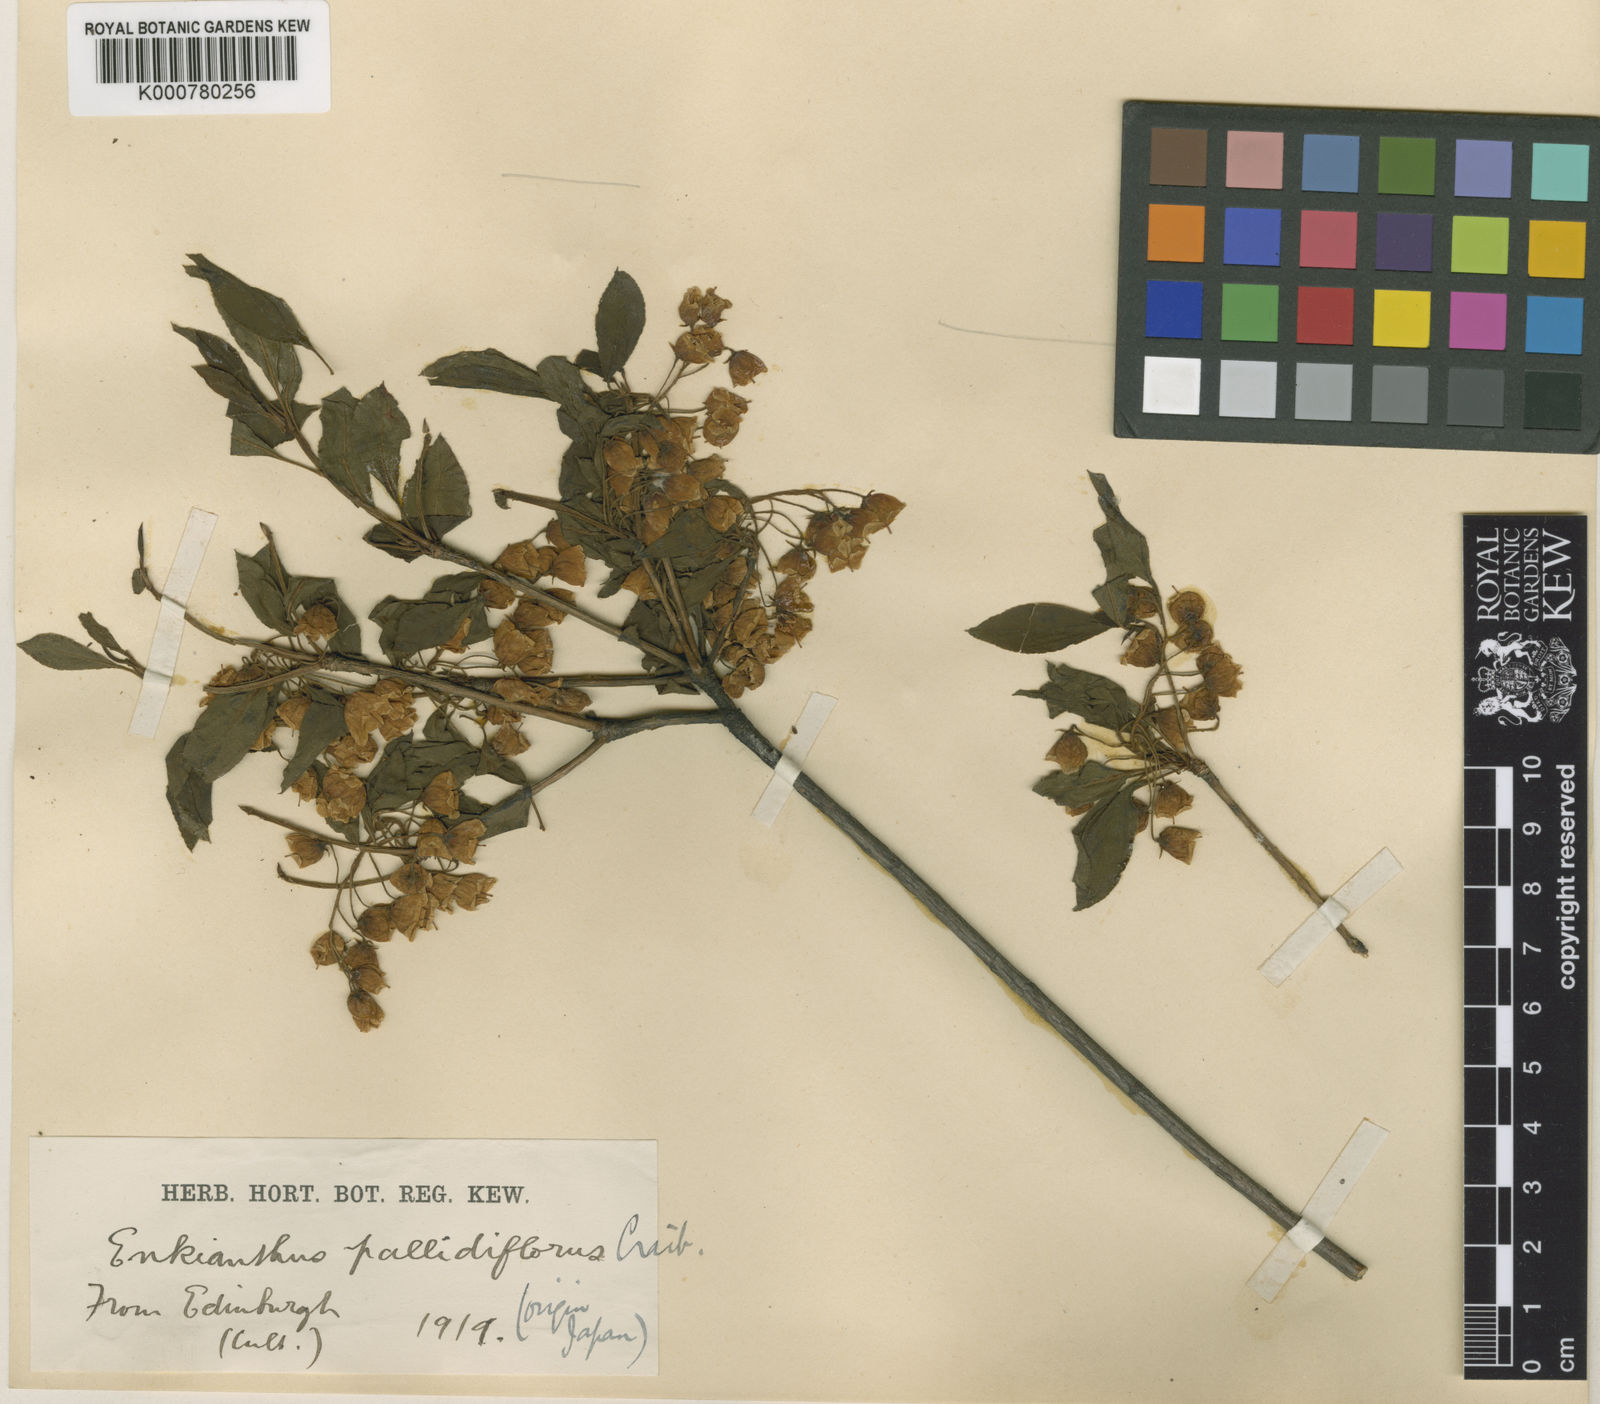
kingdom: Plantae
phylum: Tracheophyta
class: Magnoliopsida
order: Ericales
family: Ericaceae
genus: Enkianthus
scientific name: Enkianthus campanulatus
